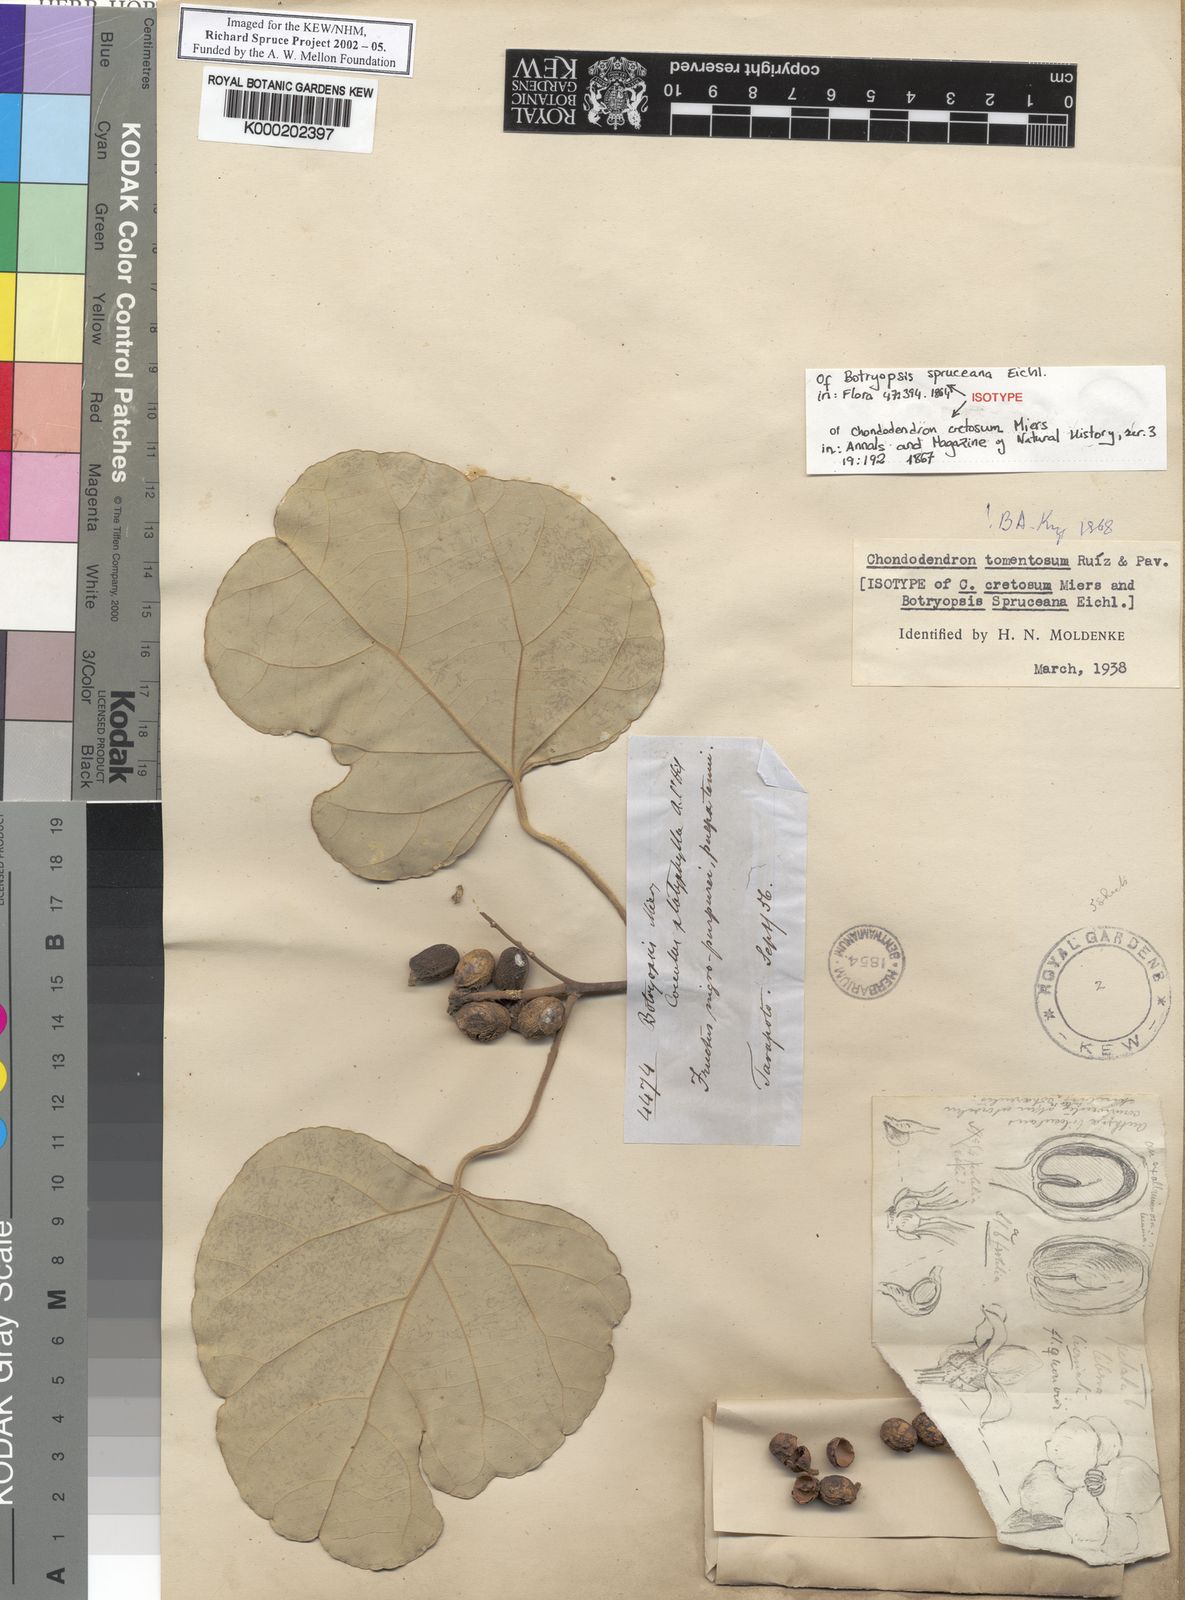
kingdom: Plantae
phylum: Tracheophyta
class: Magnoliopsida
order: Ranunculales
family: Menispermaceae
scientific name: Menispermaceae
